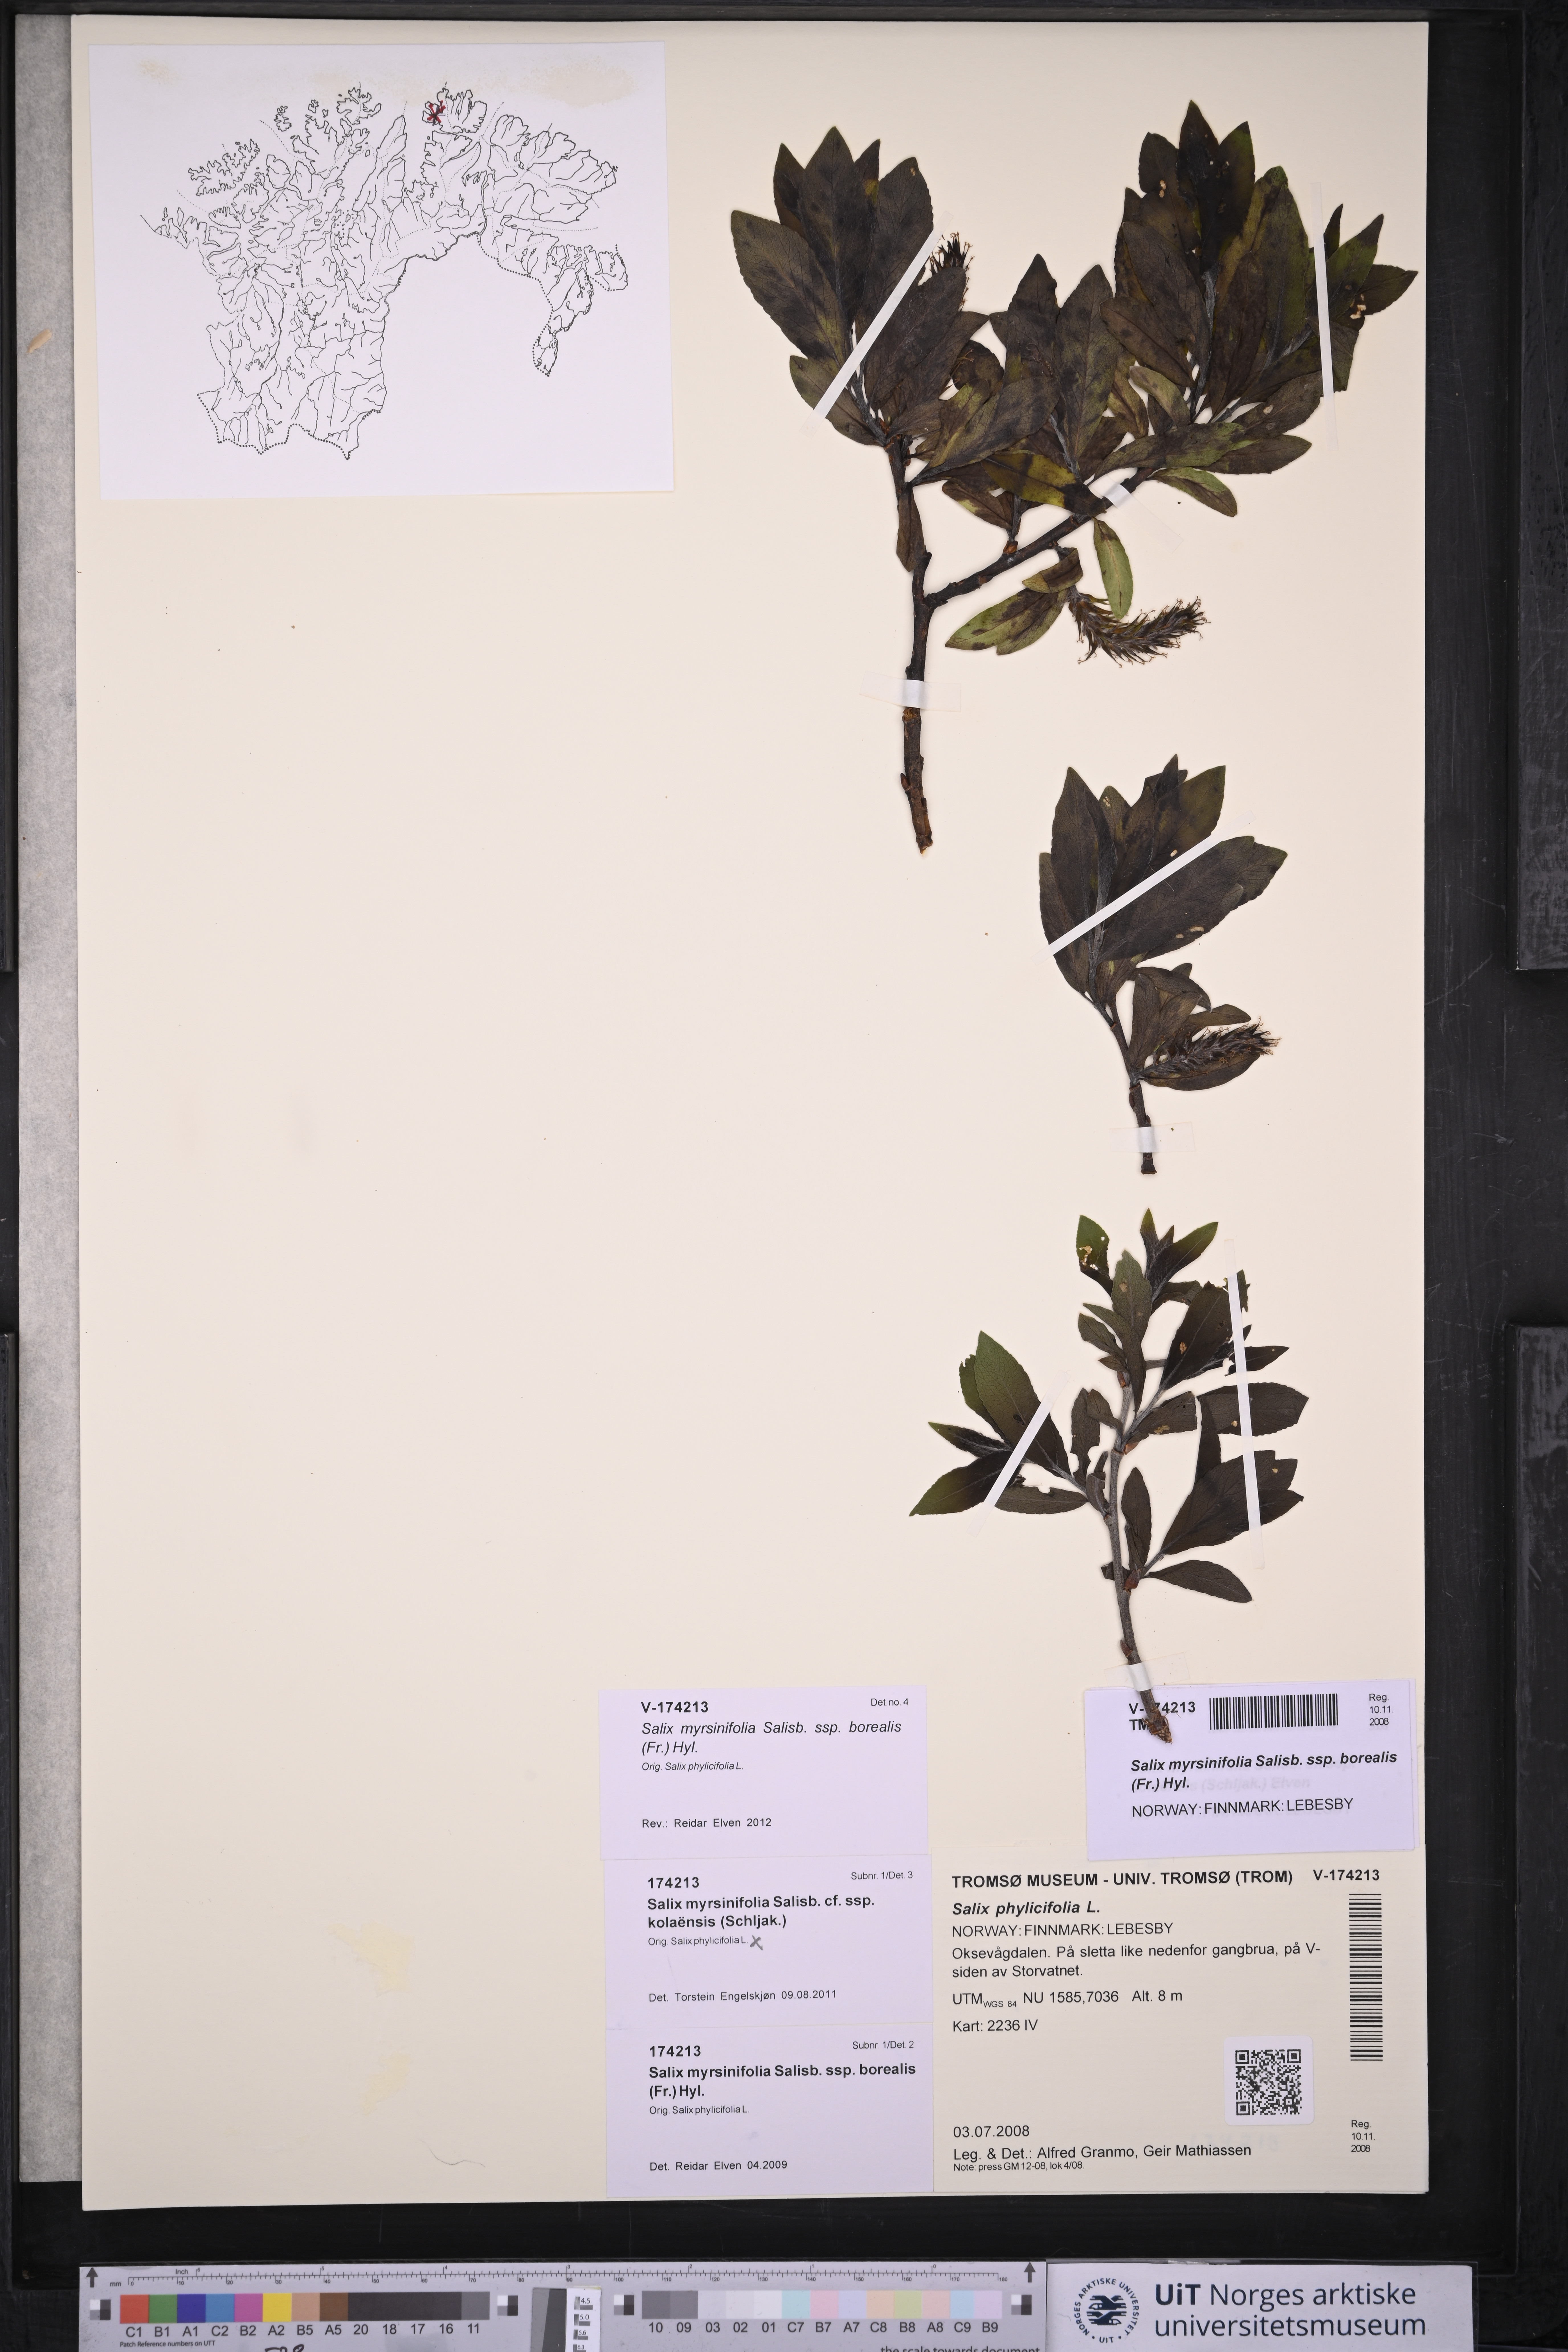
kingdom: Plantae
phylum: Tracheophyta
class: Magnoliopsida
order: Malpighiales
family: Salicaceae
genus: Salix
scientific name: Salix myrsinifolia
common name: Dark-leaved willow
